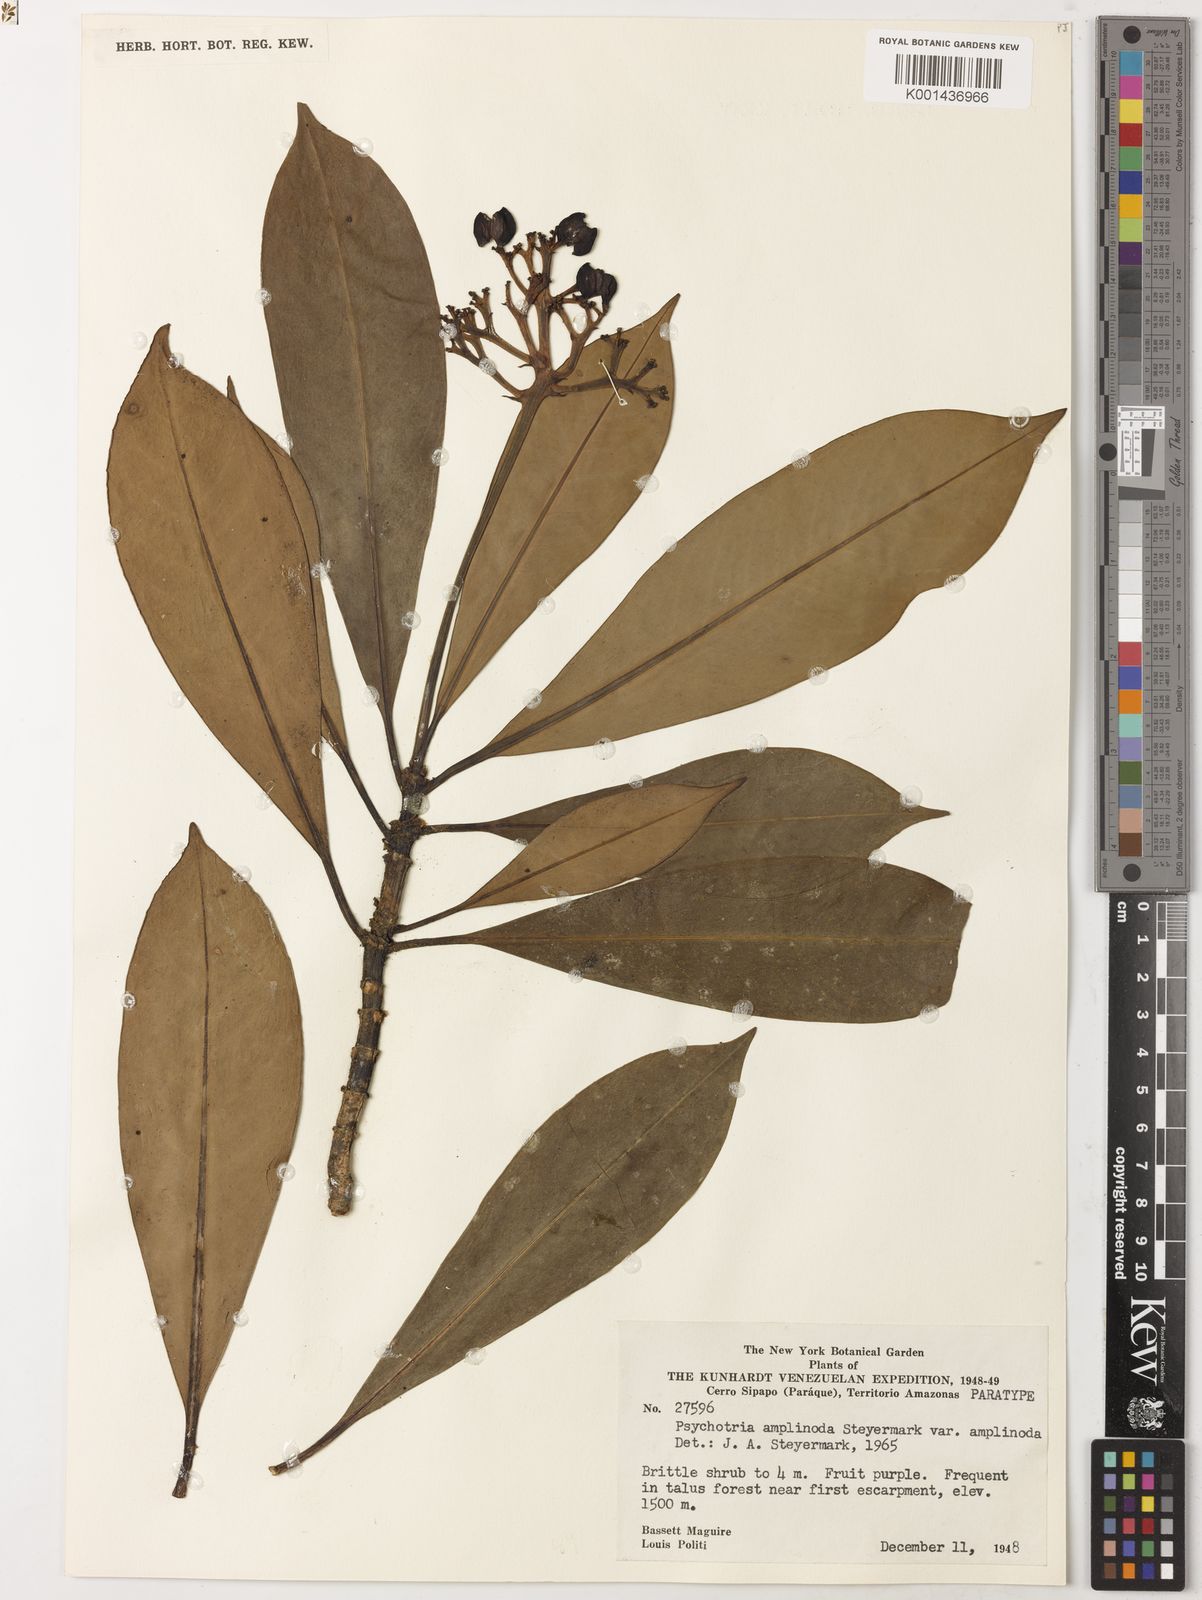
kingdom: Plantae
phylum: Tracheophyta
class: Magnoliopsida
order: Gentianales
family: Rubiaceae
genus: Notopleura
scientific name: Notopleura tapajozensis
